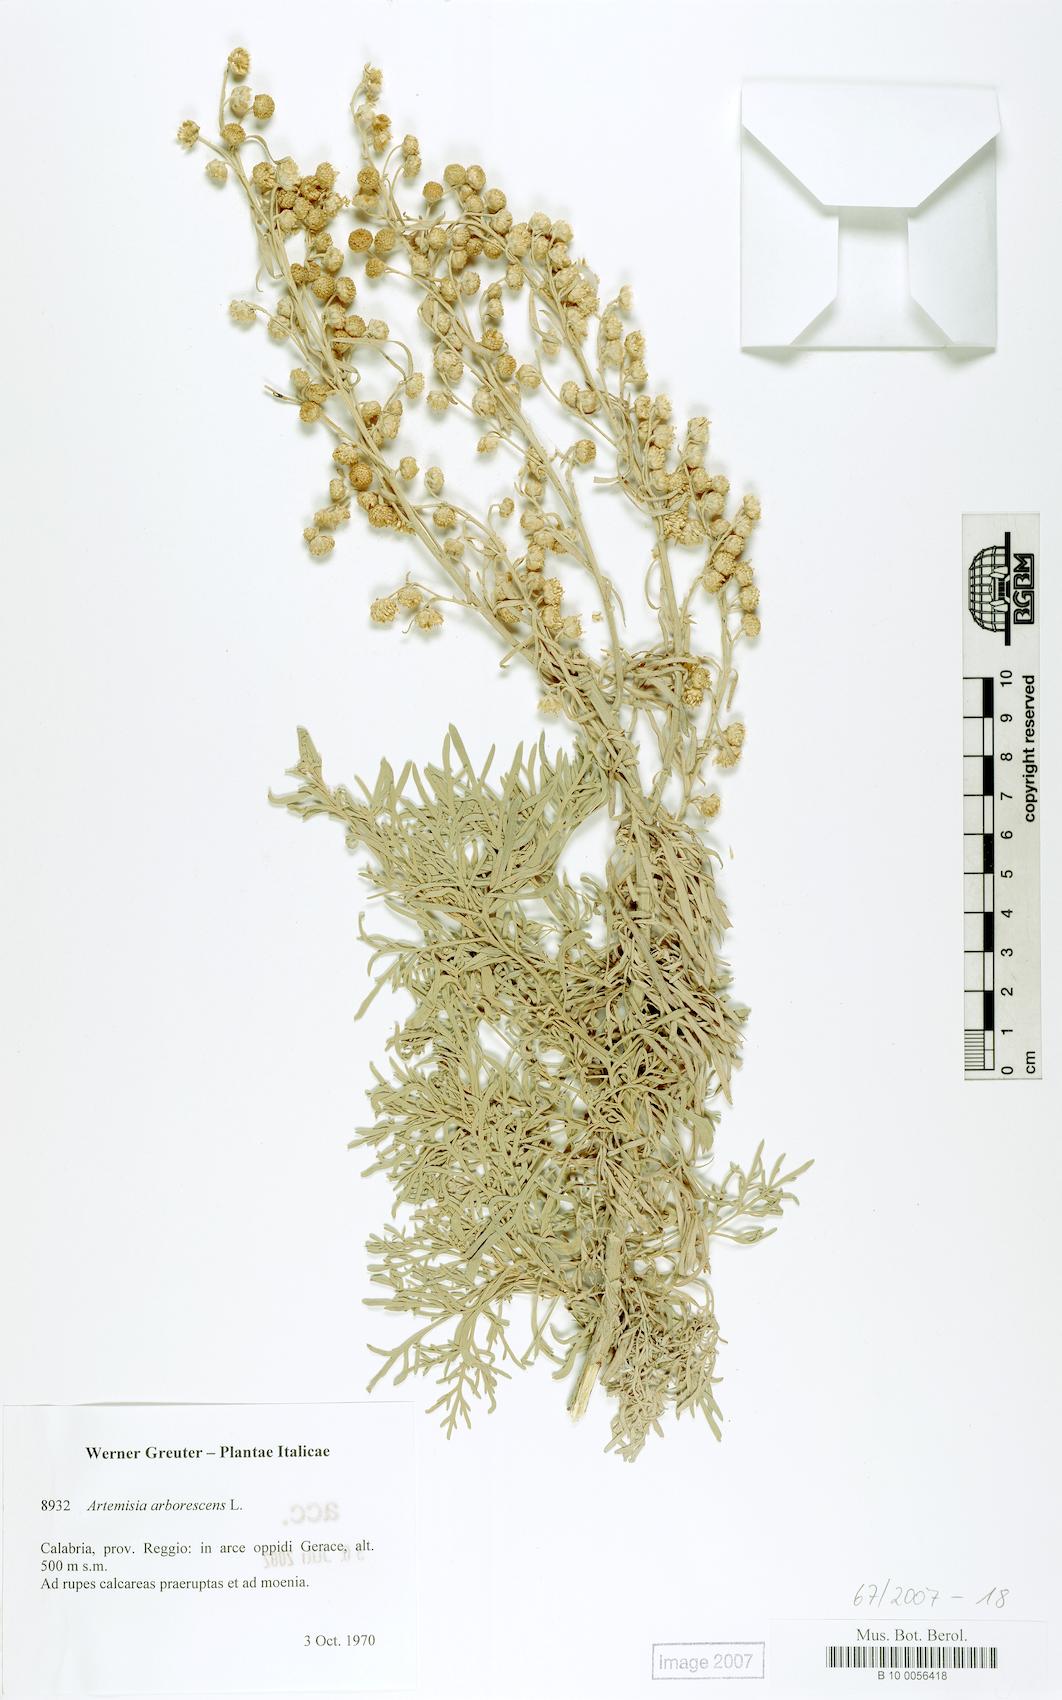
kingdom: Plantae
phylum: Tracheophyta
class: Magnoliopsida
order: Asterales
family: Asteraceae
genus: Artemisia
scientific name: Artemisia arborescens
